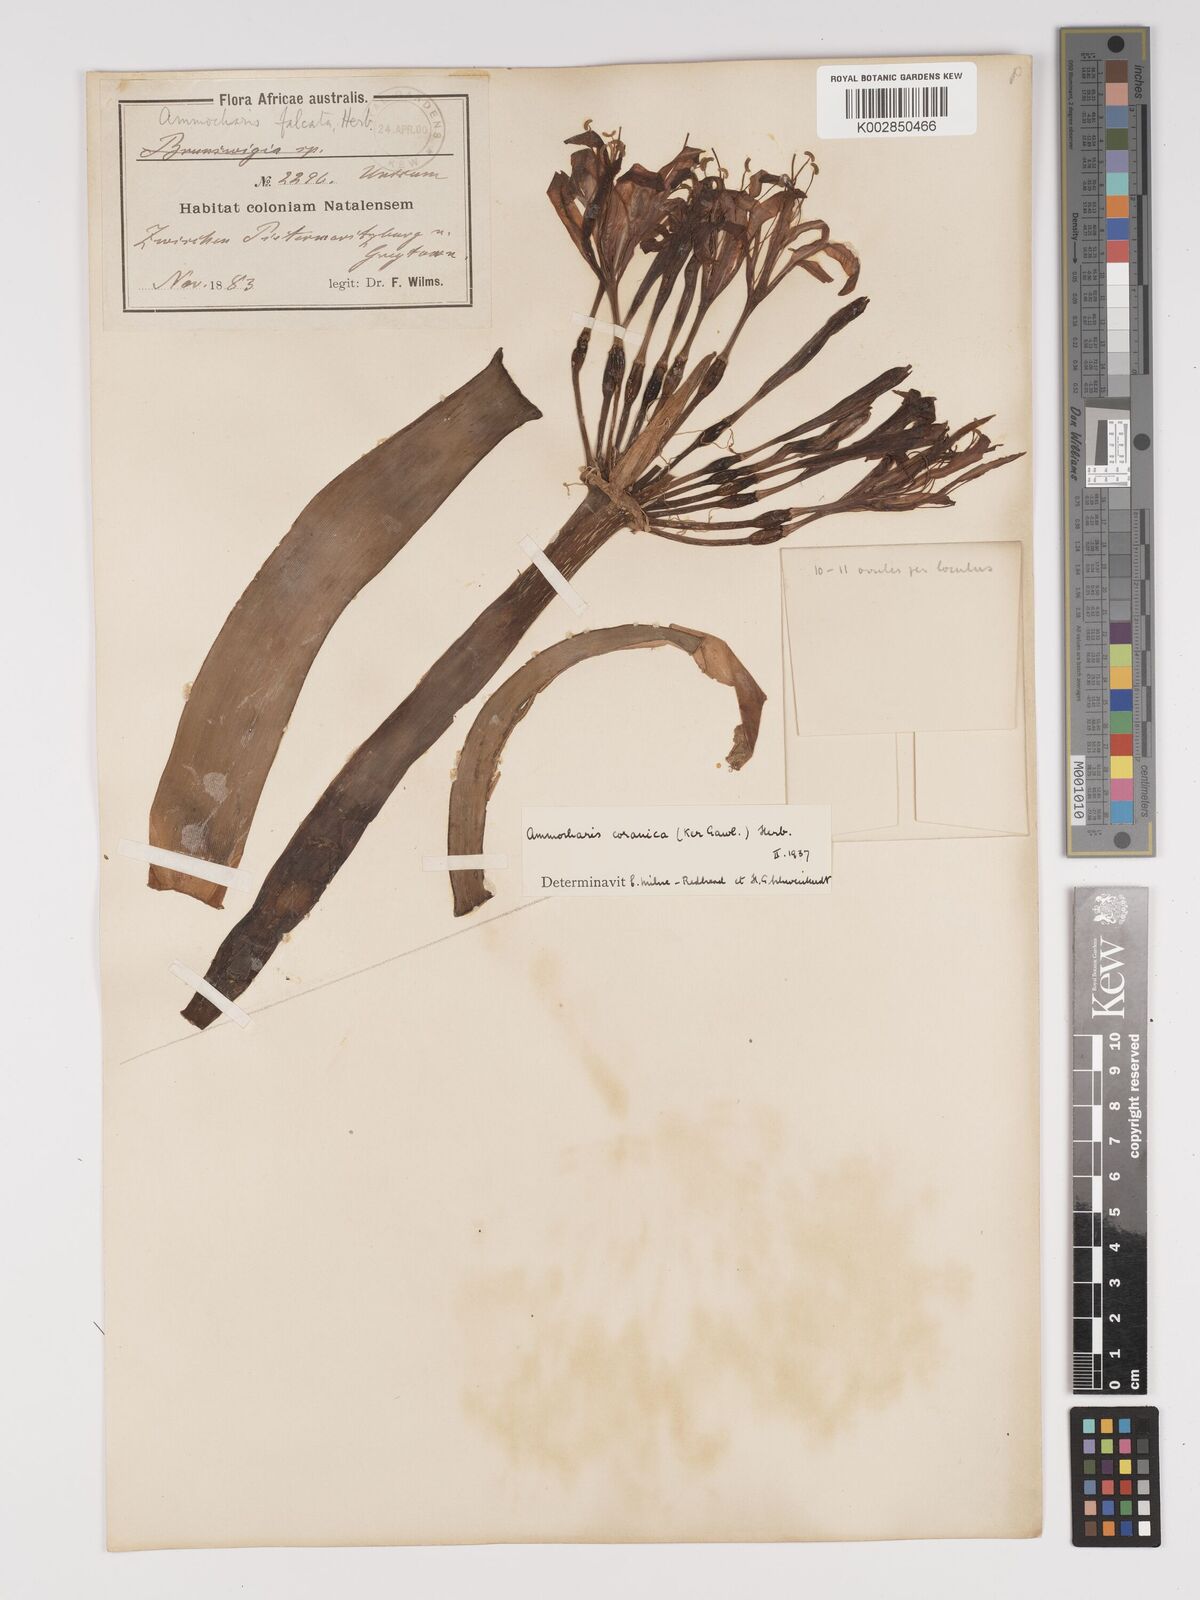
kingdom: Plantae
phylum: Tracheophyta
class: Liliopsida
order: Asparagales
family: Amaryllidaceae
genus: Ammocharis
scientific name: Ammocharis coranica
